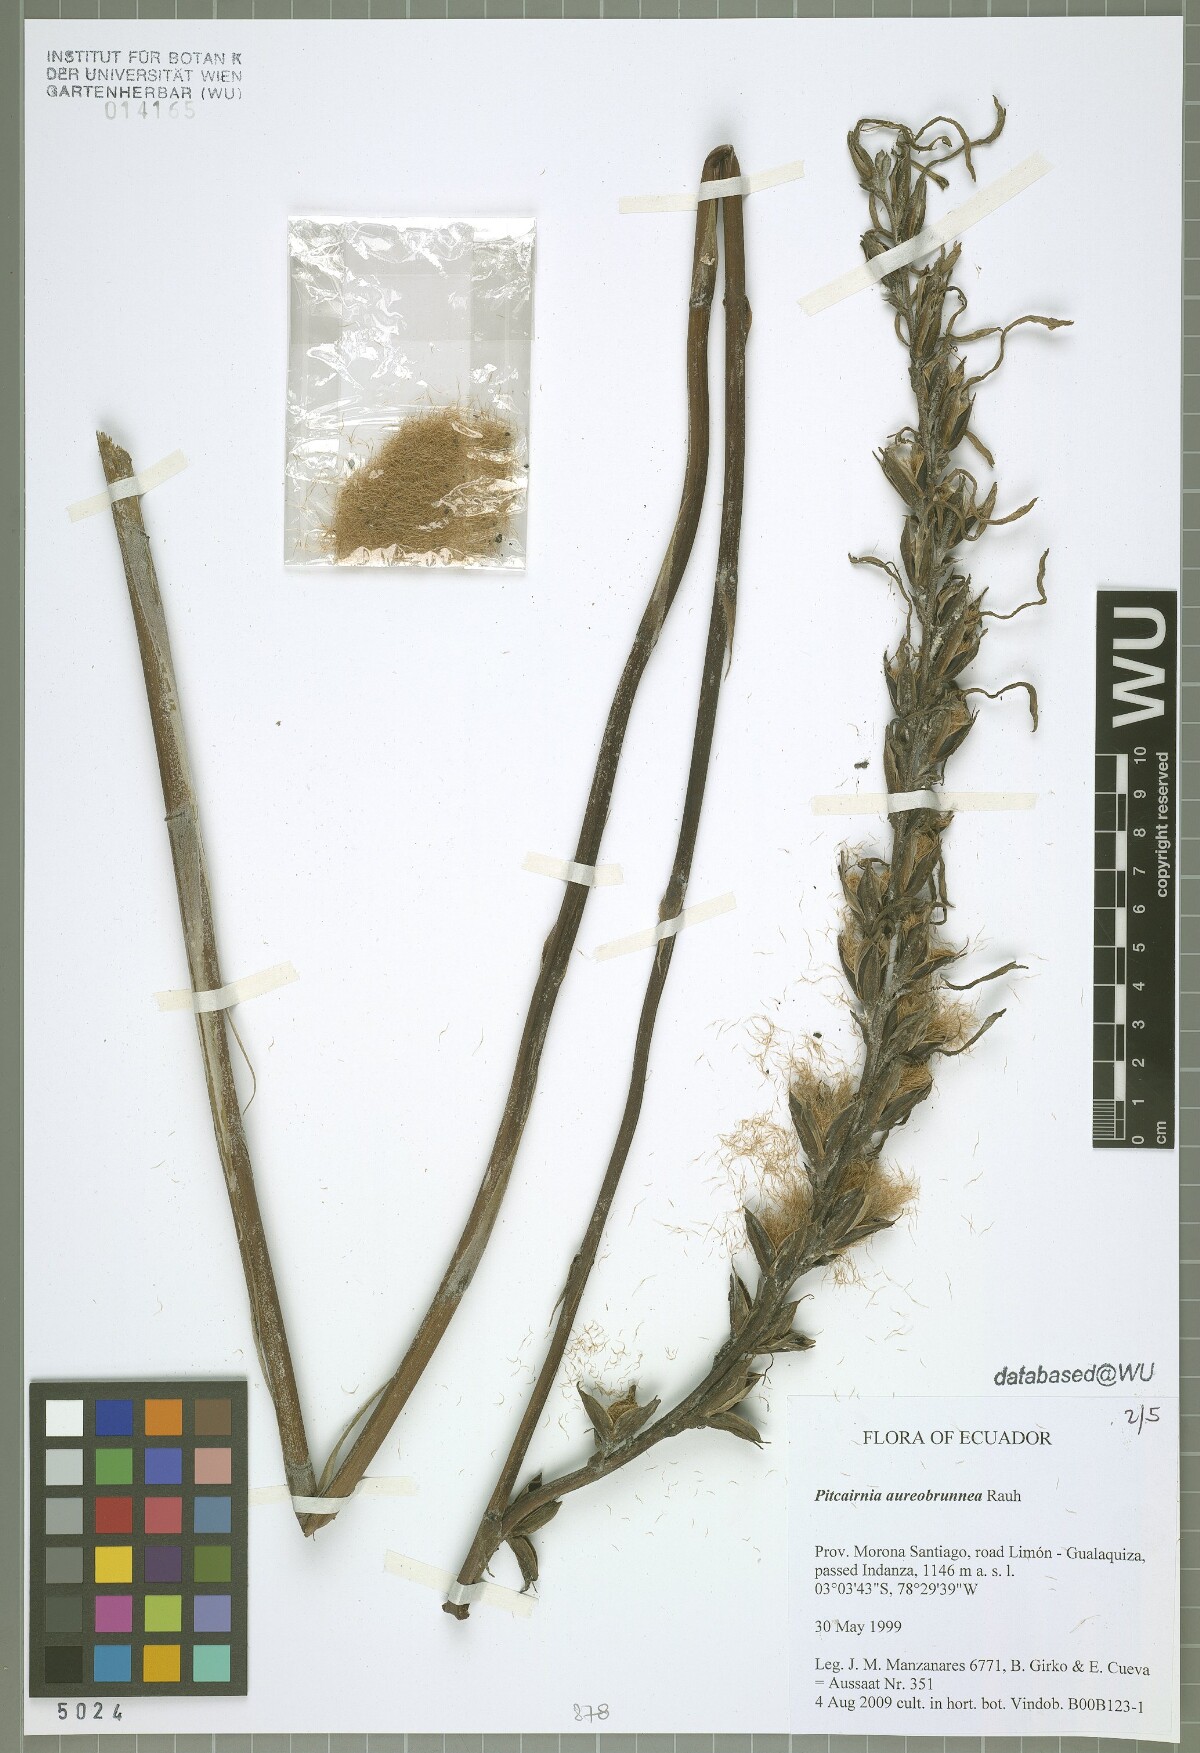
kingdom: Plantae
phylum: Tracheophyta
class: Liliopsida
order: Poales
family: Bromeliaceae
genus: Pitcairnia
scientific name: Pitcairnia aureobrunnea
